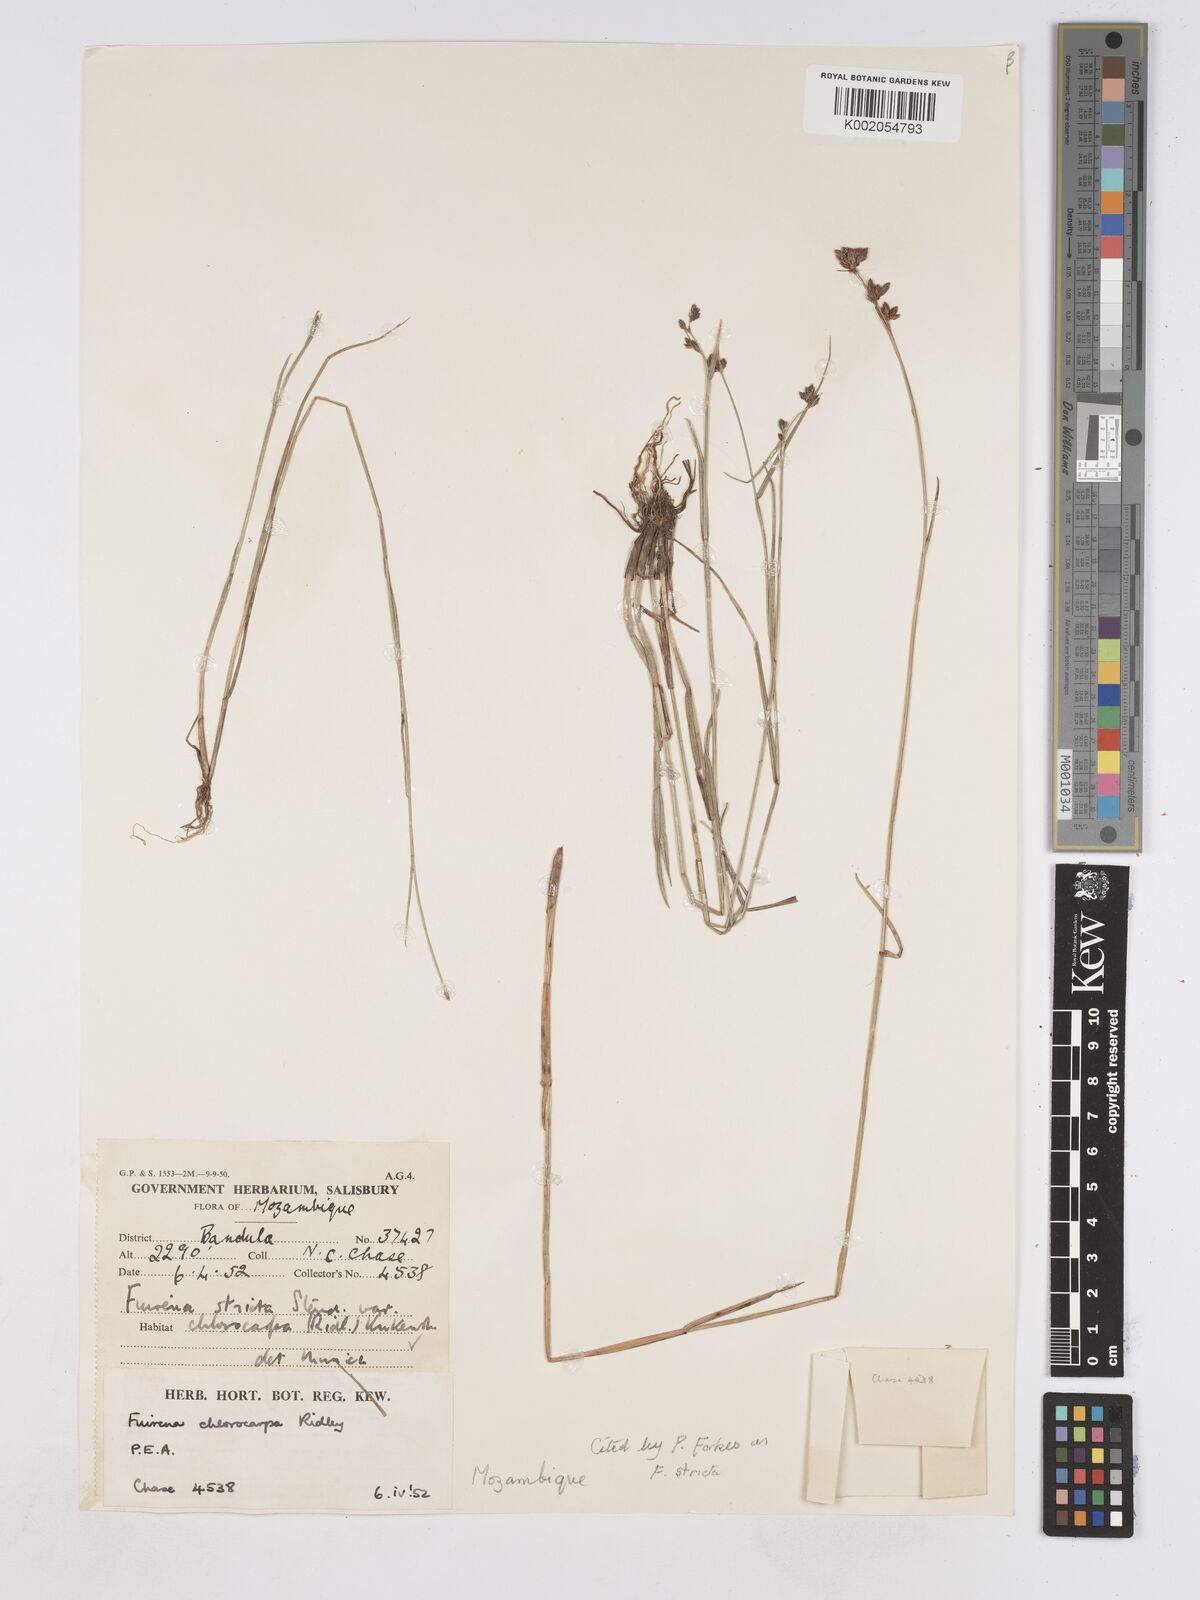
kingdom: Plantae
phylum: Tracheophyta
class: Liliopsida
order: Poales
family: Cyperaceae
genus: Fuirena
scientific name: Fuirena stricta
